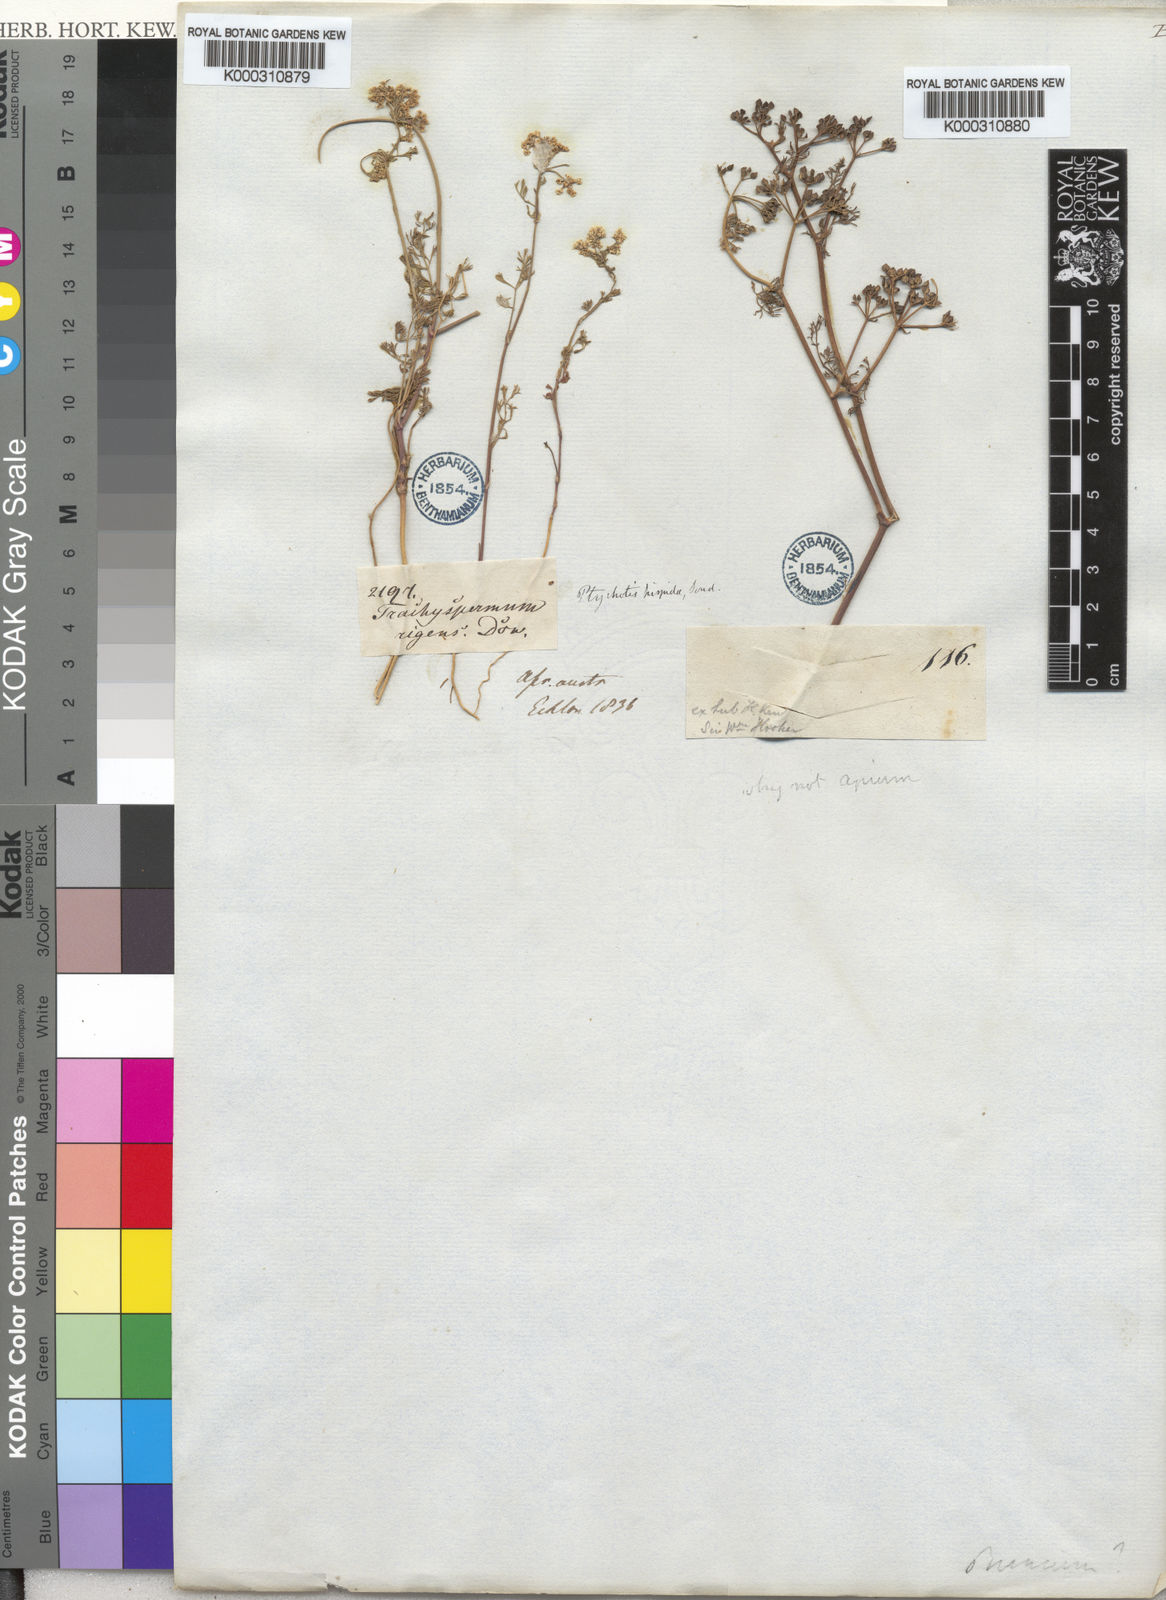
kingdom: Plantae
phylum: Tracheophyta
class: Magnoliopsida
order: Apiales
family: Apiaceae
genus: Dasispermum
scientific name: Dasispermum hispidum
